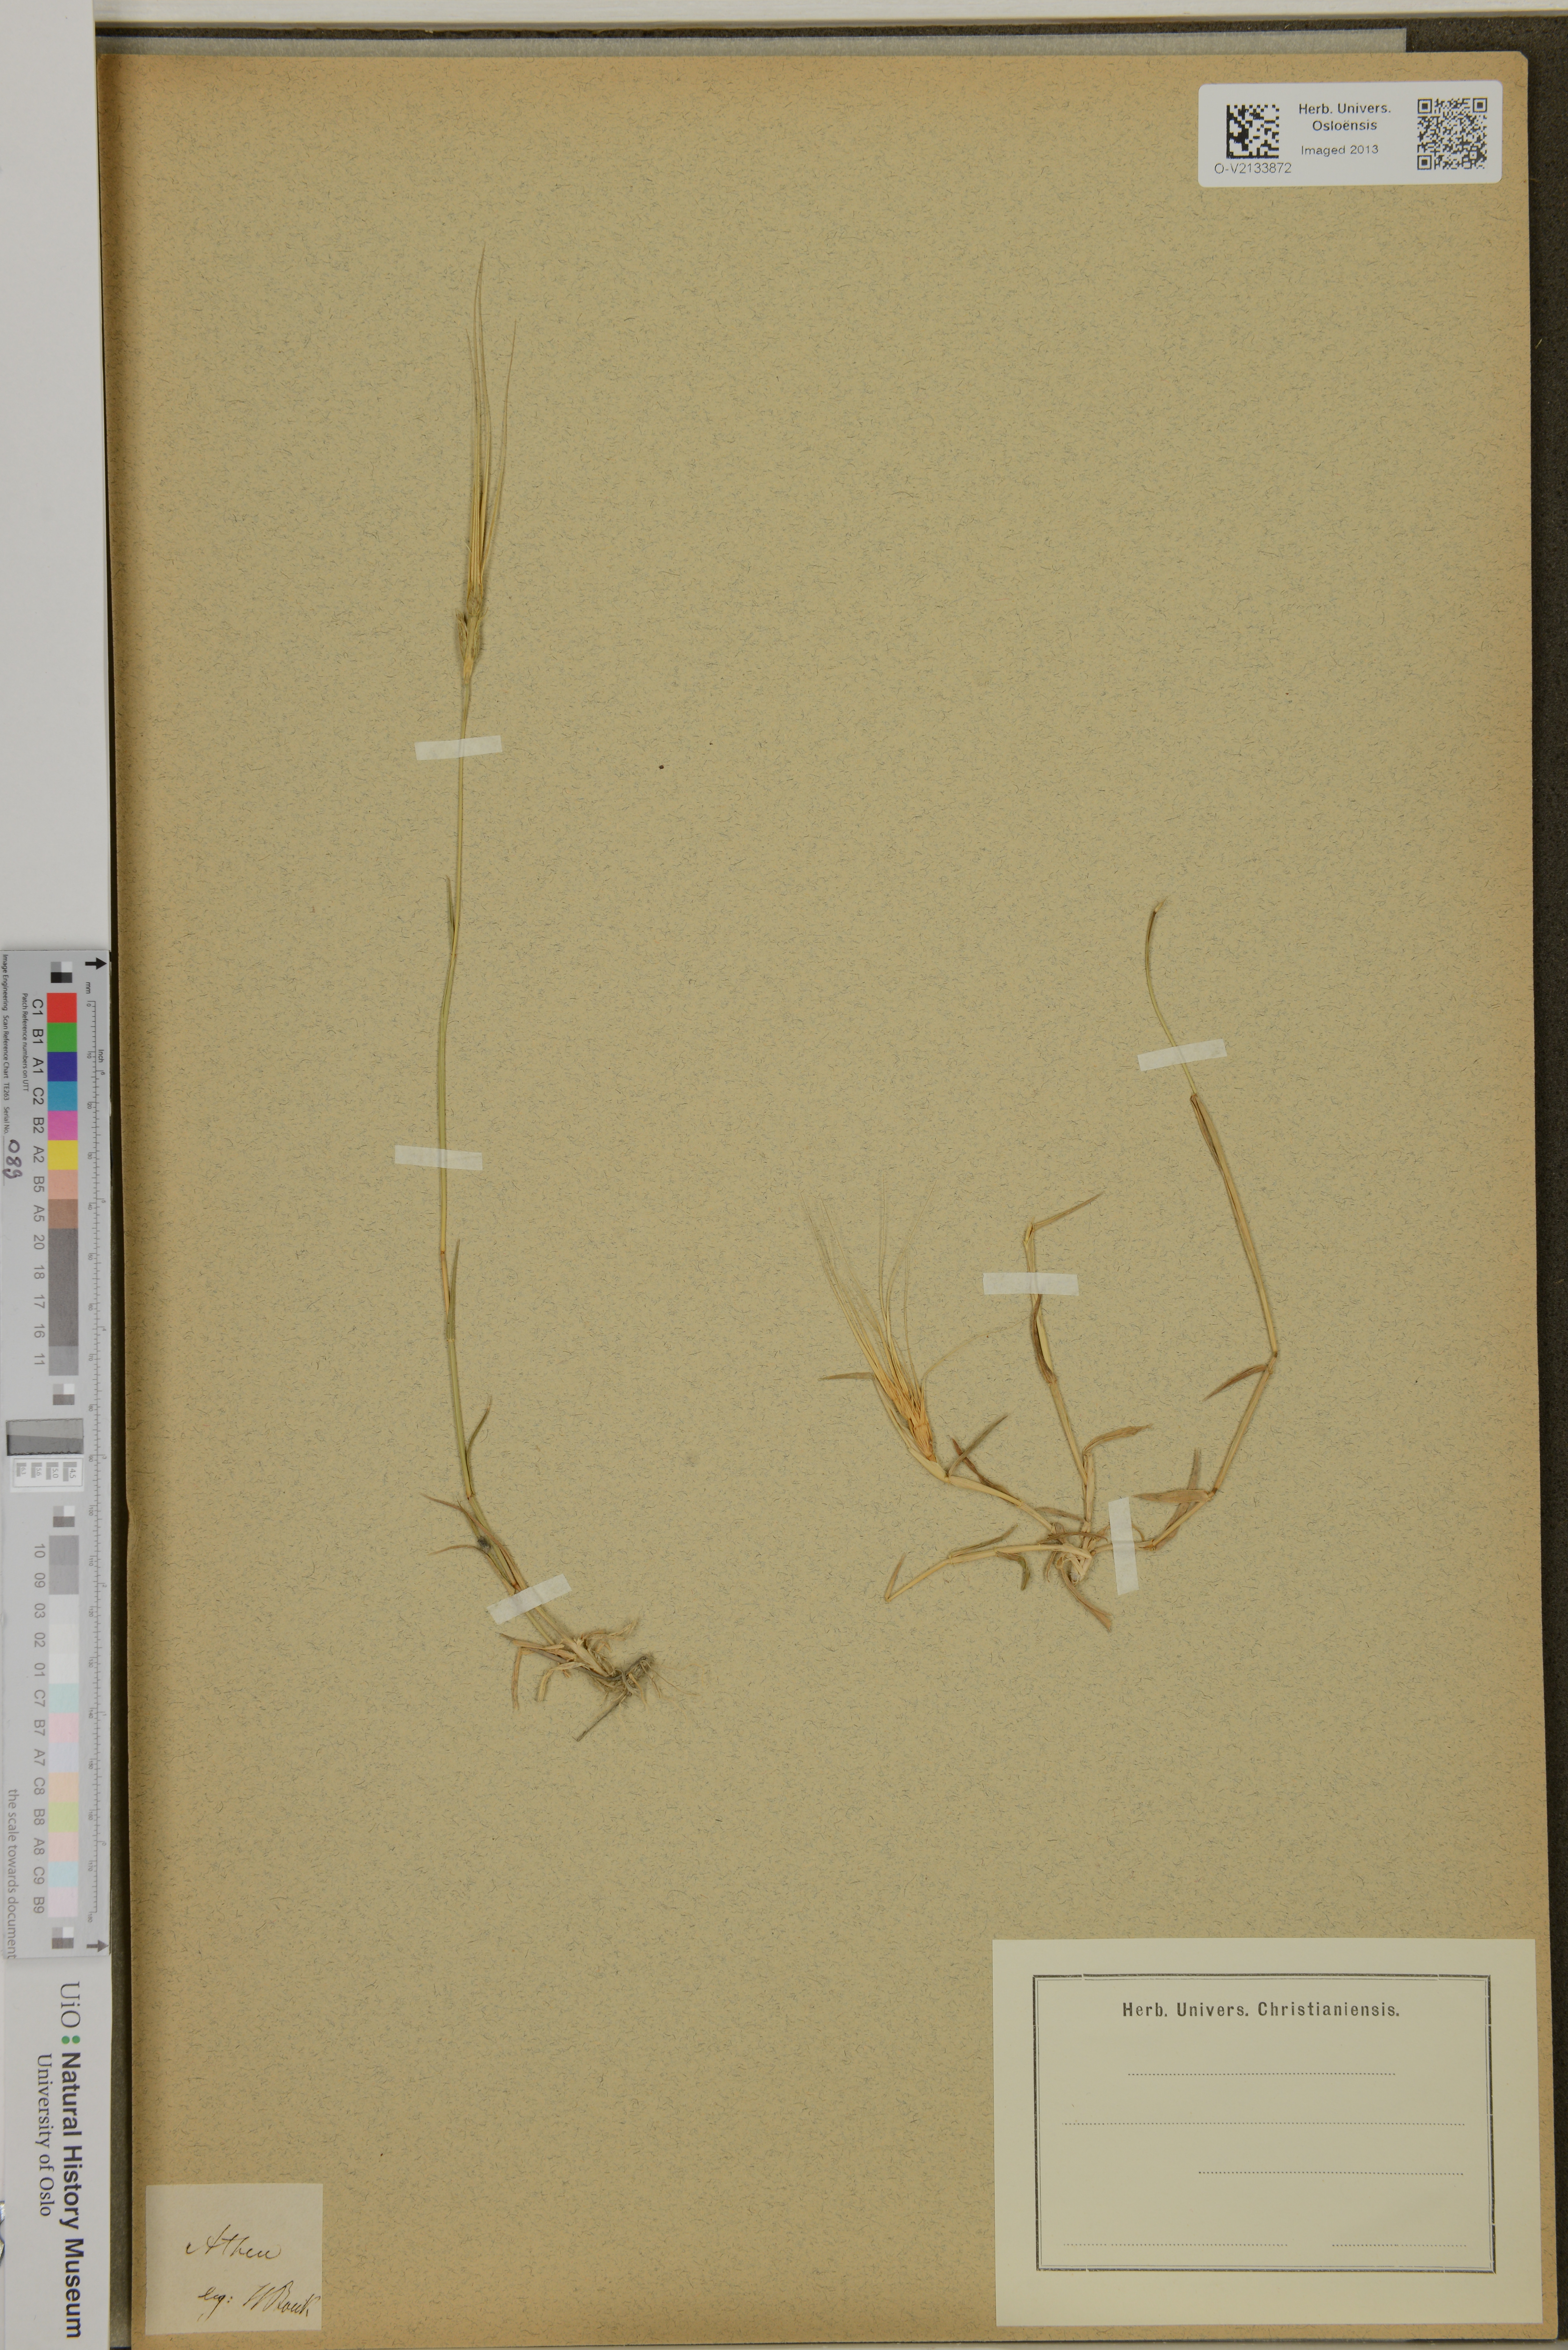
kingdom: Plantae
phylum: Tracheophyta
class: Liliopsida
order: Poales
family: Poaceae
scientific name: Poaceae
